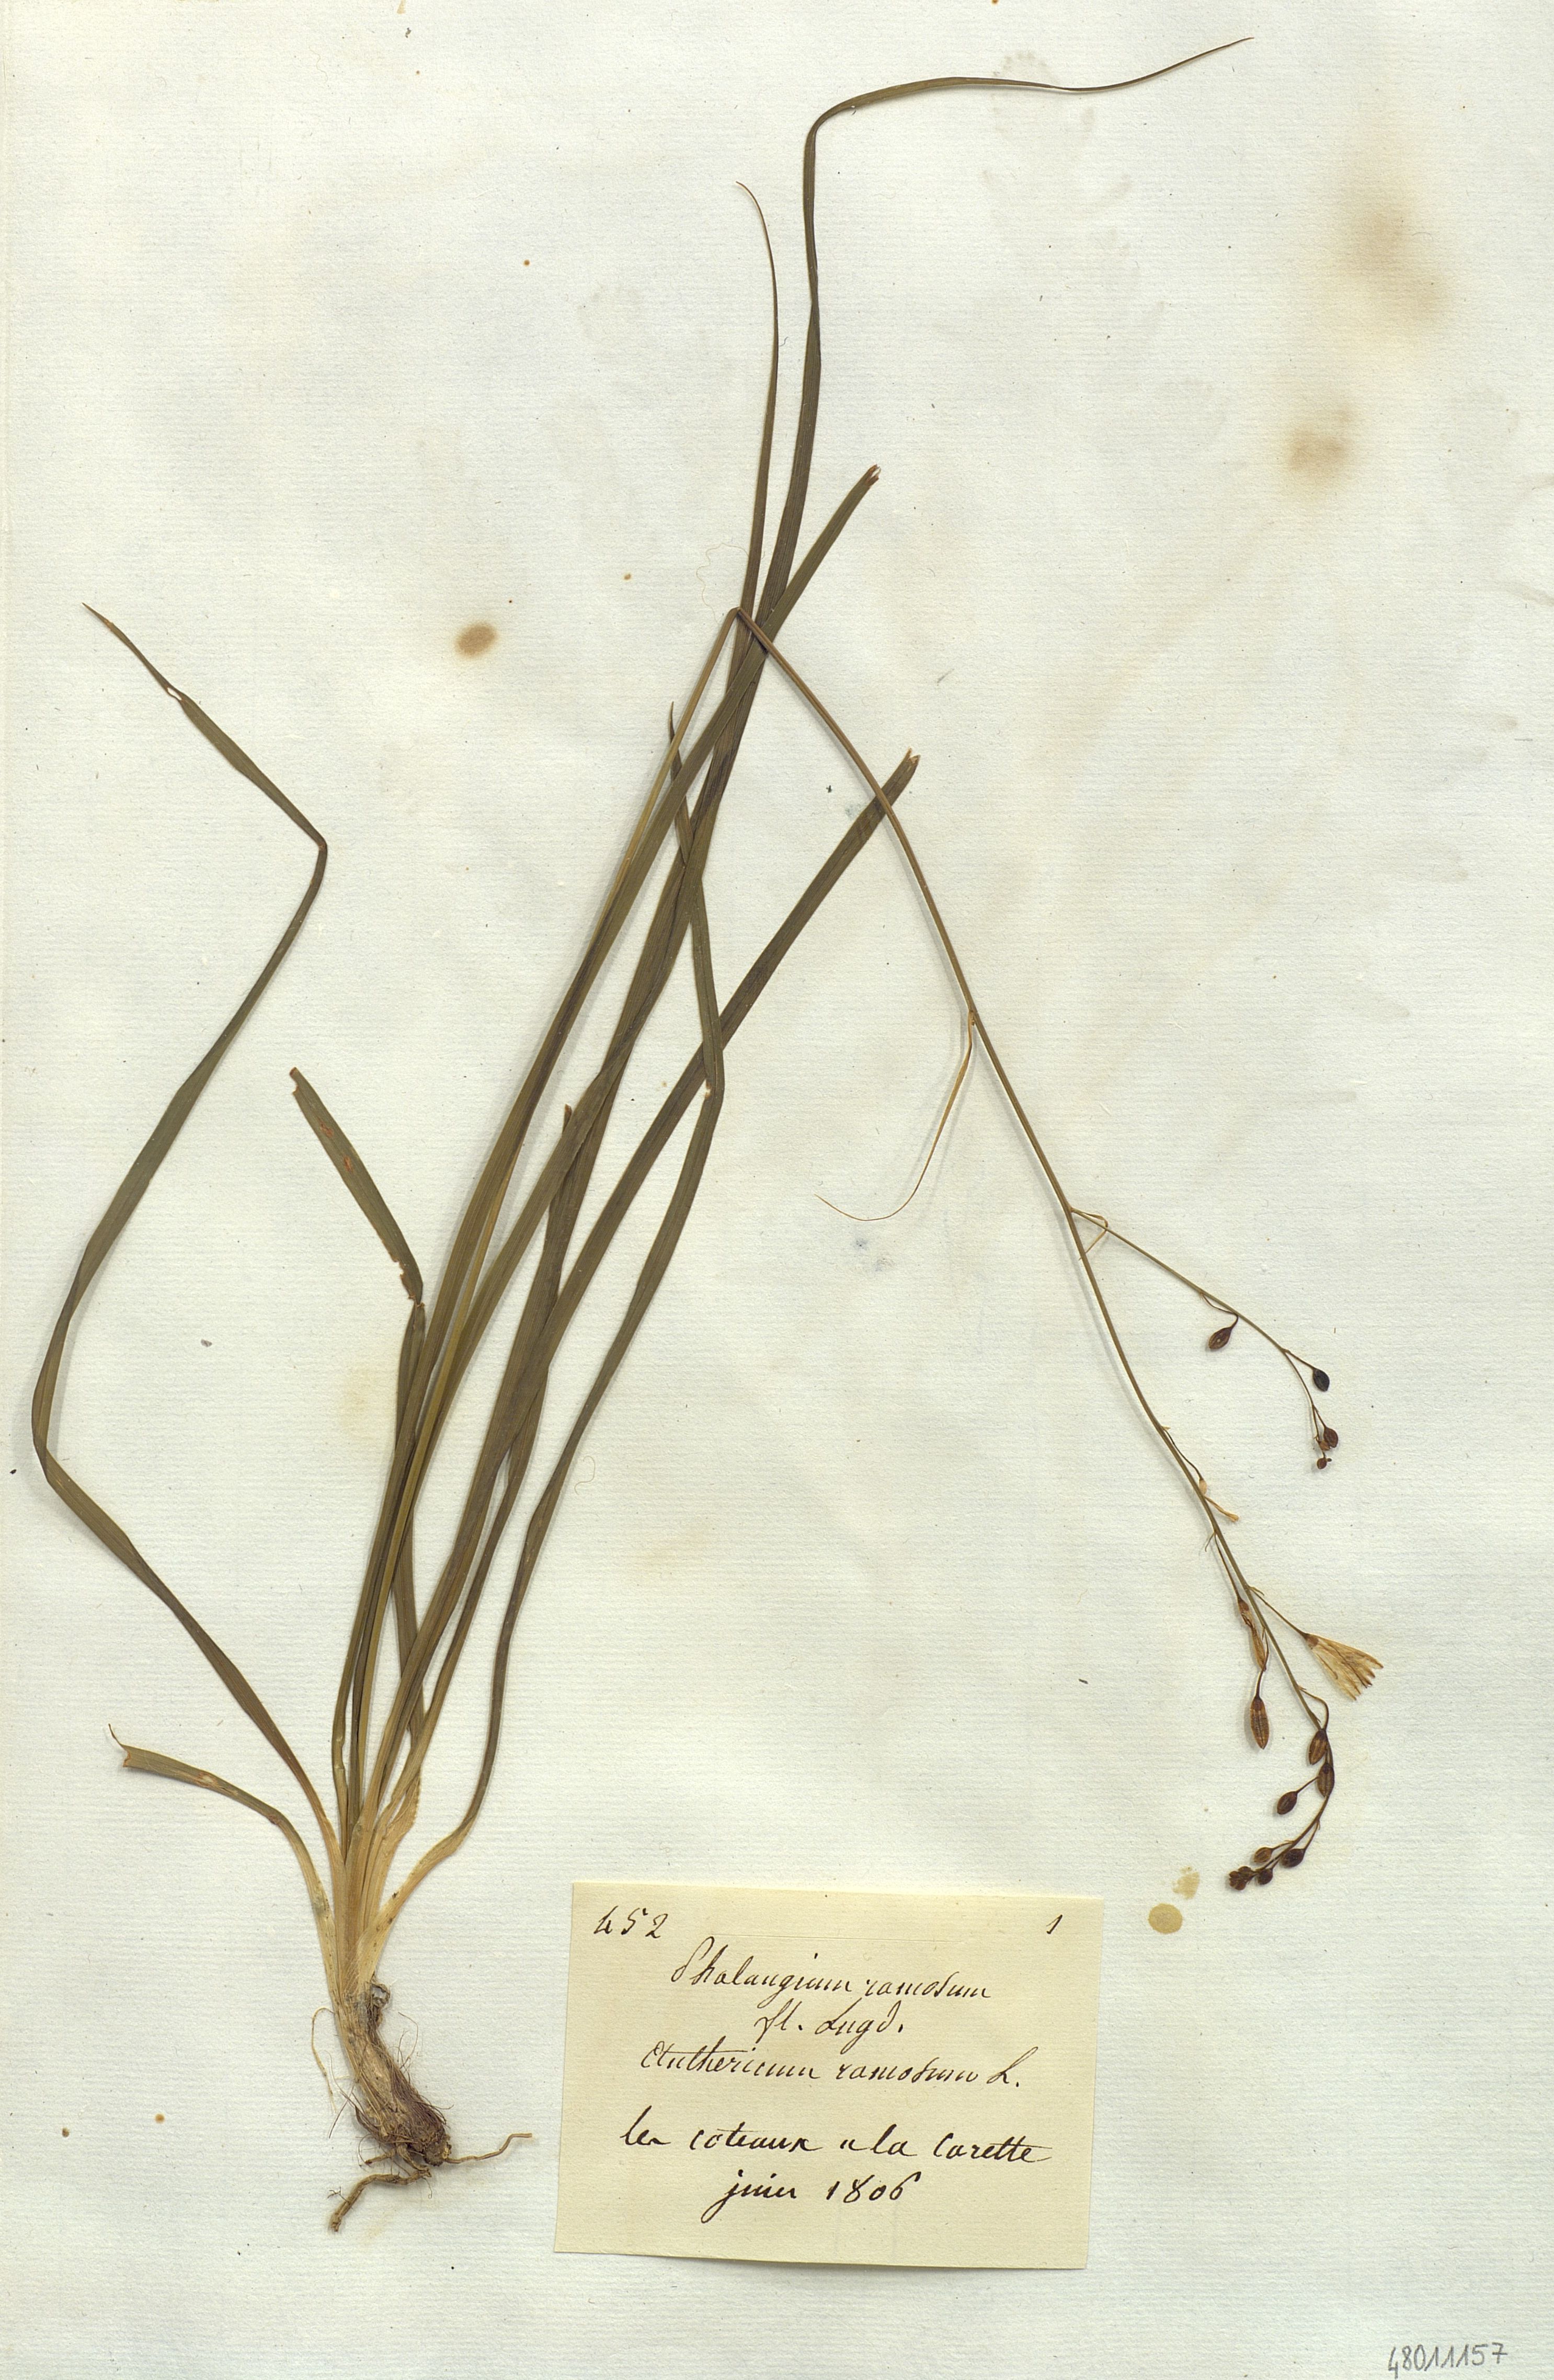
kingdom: Plantae
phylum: Tracheophyta
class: Liliopsida
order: Liliales
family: Liliaceae
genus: Phalangium
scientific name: Phalangium
